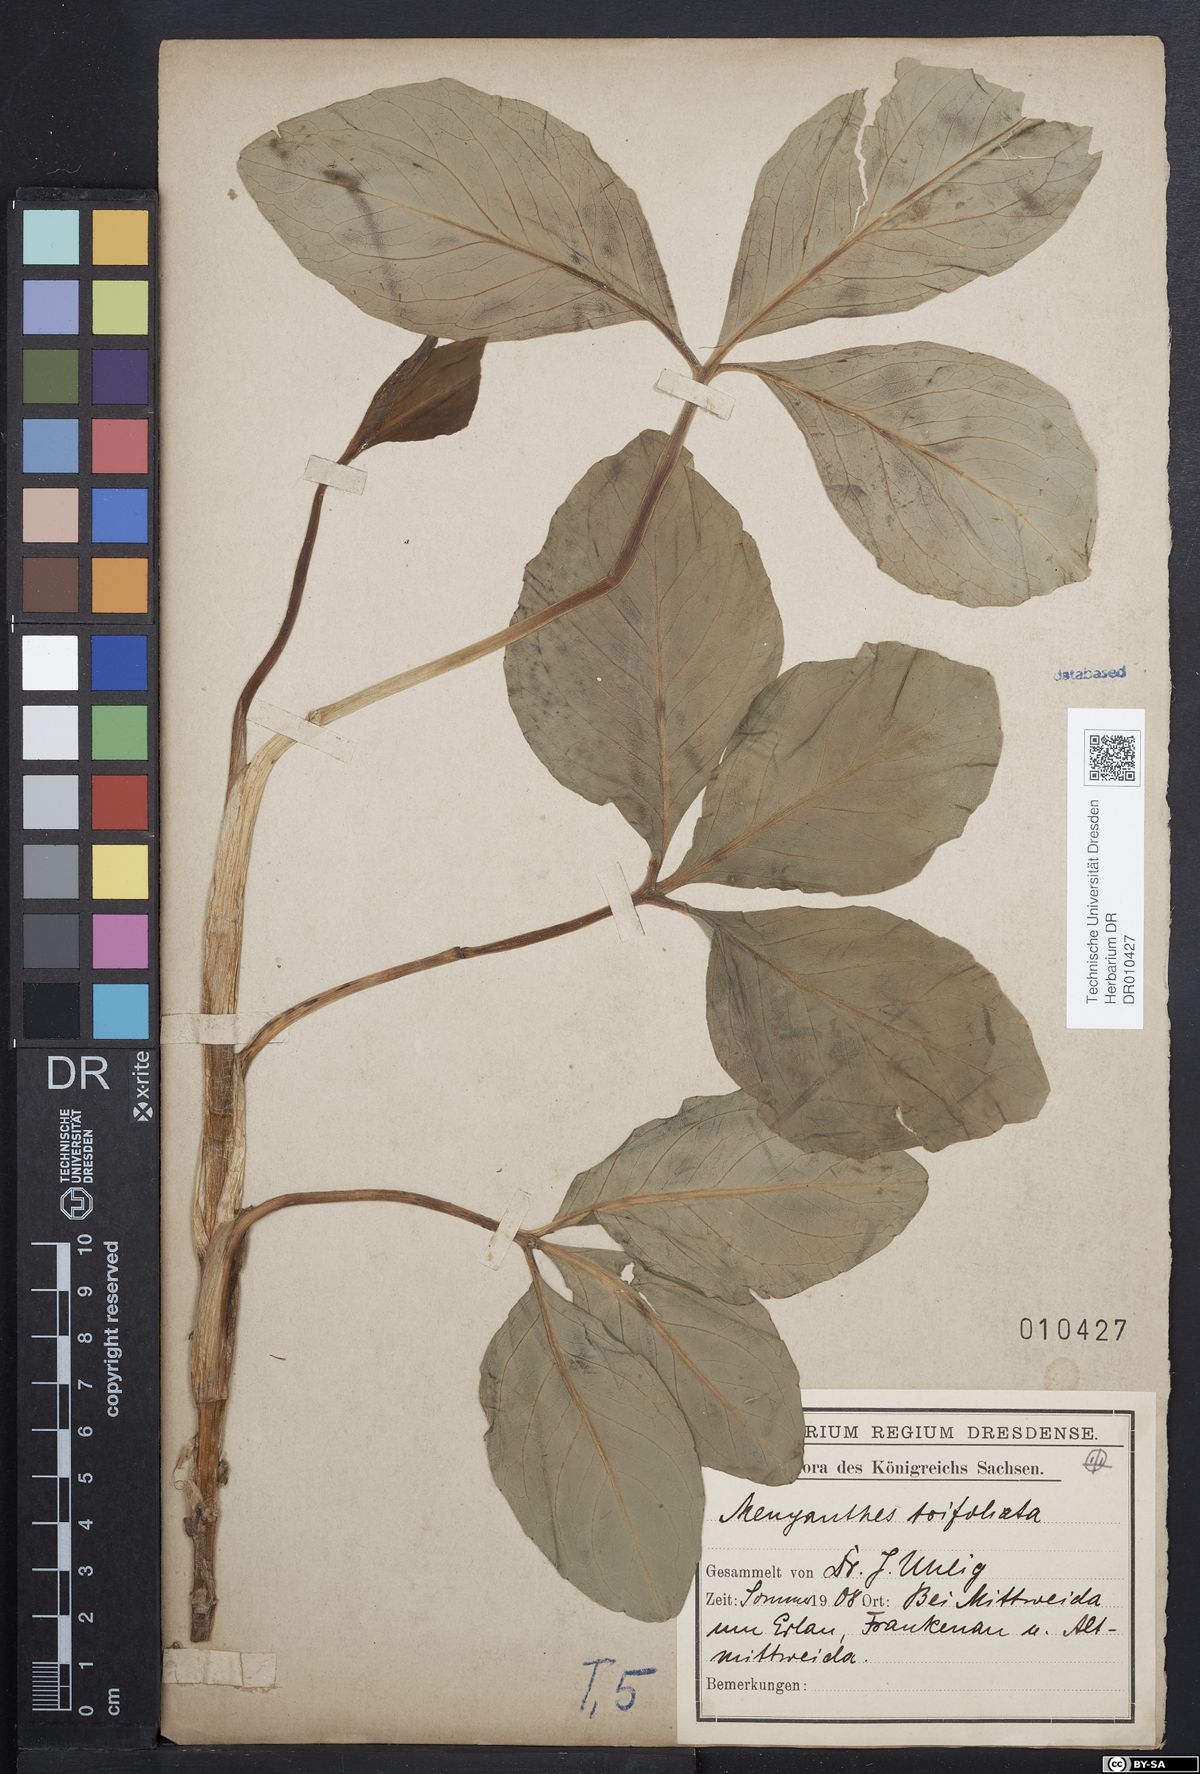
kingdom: Plantae
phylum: Tracheophyta
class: Magnoliopsida
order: Asterales
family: Menyanthaceae
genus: Menyanthes
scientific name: Menyanthes trifoliata
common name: Bogbean
